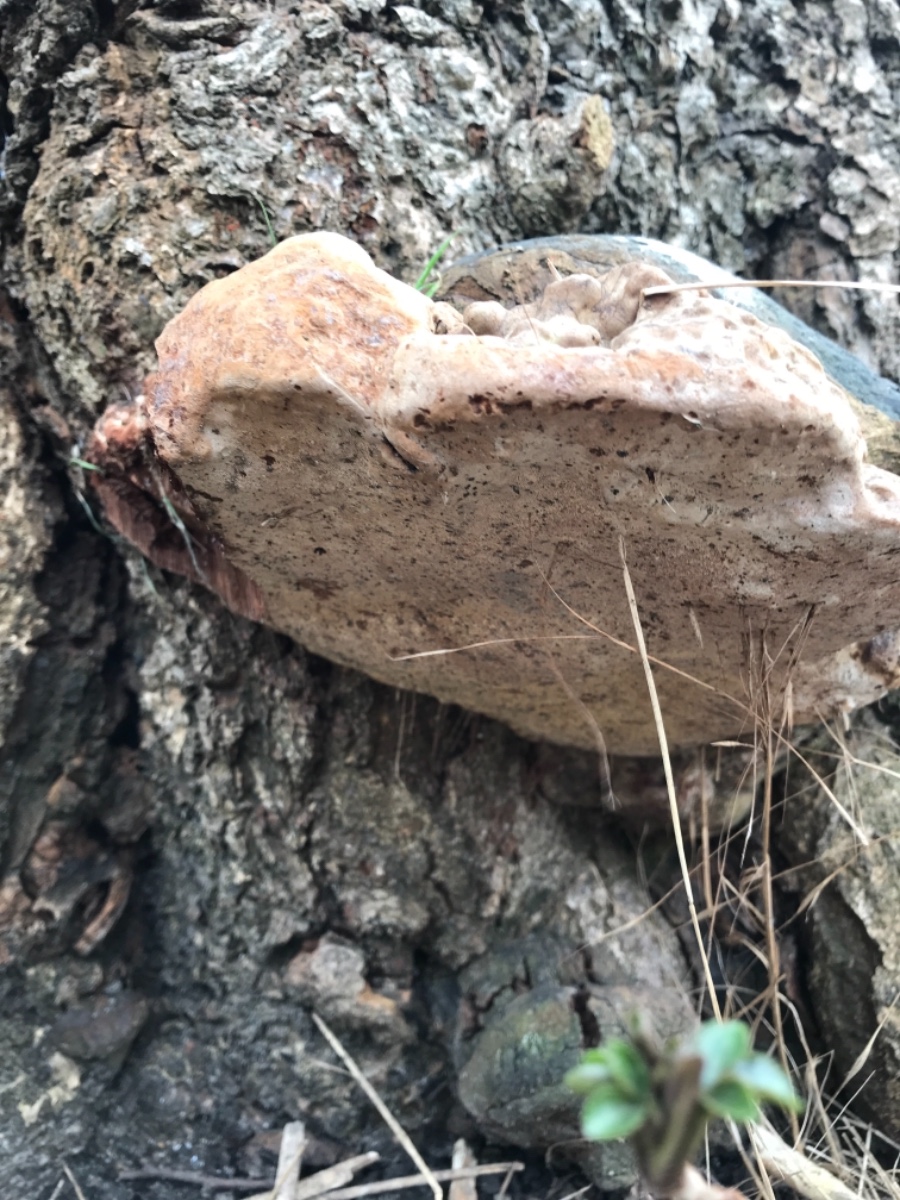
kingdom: Fungi
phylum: Basidiomycota
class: Agaricomycetes
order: Polyporales
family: Polyporaceae
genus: Ganoderma
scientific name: Ganoderma adspersum
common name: grov lakporesvamp
